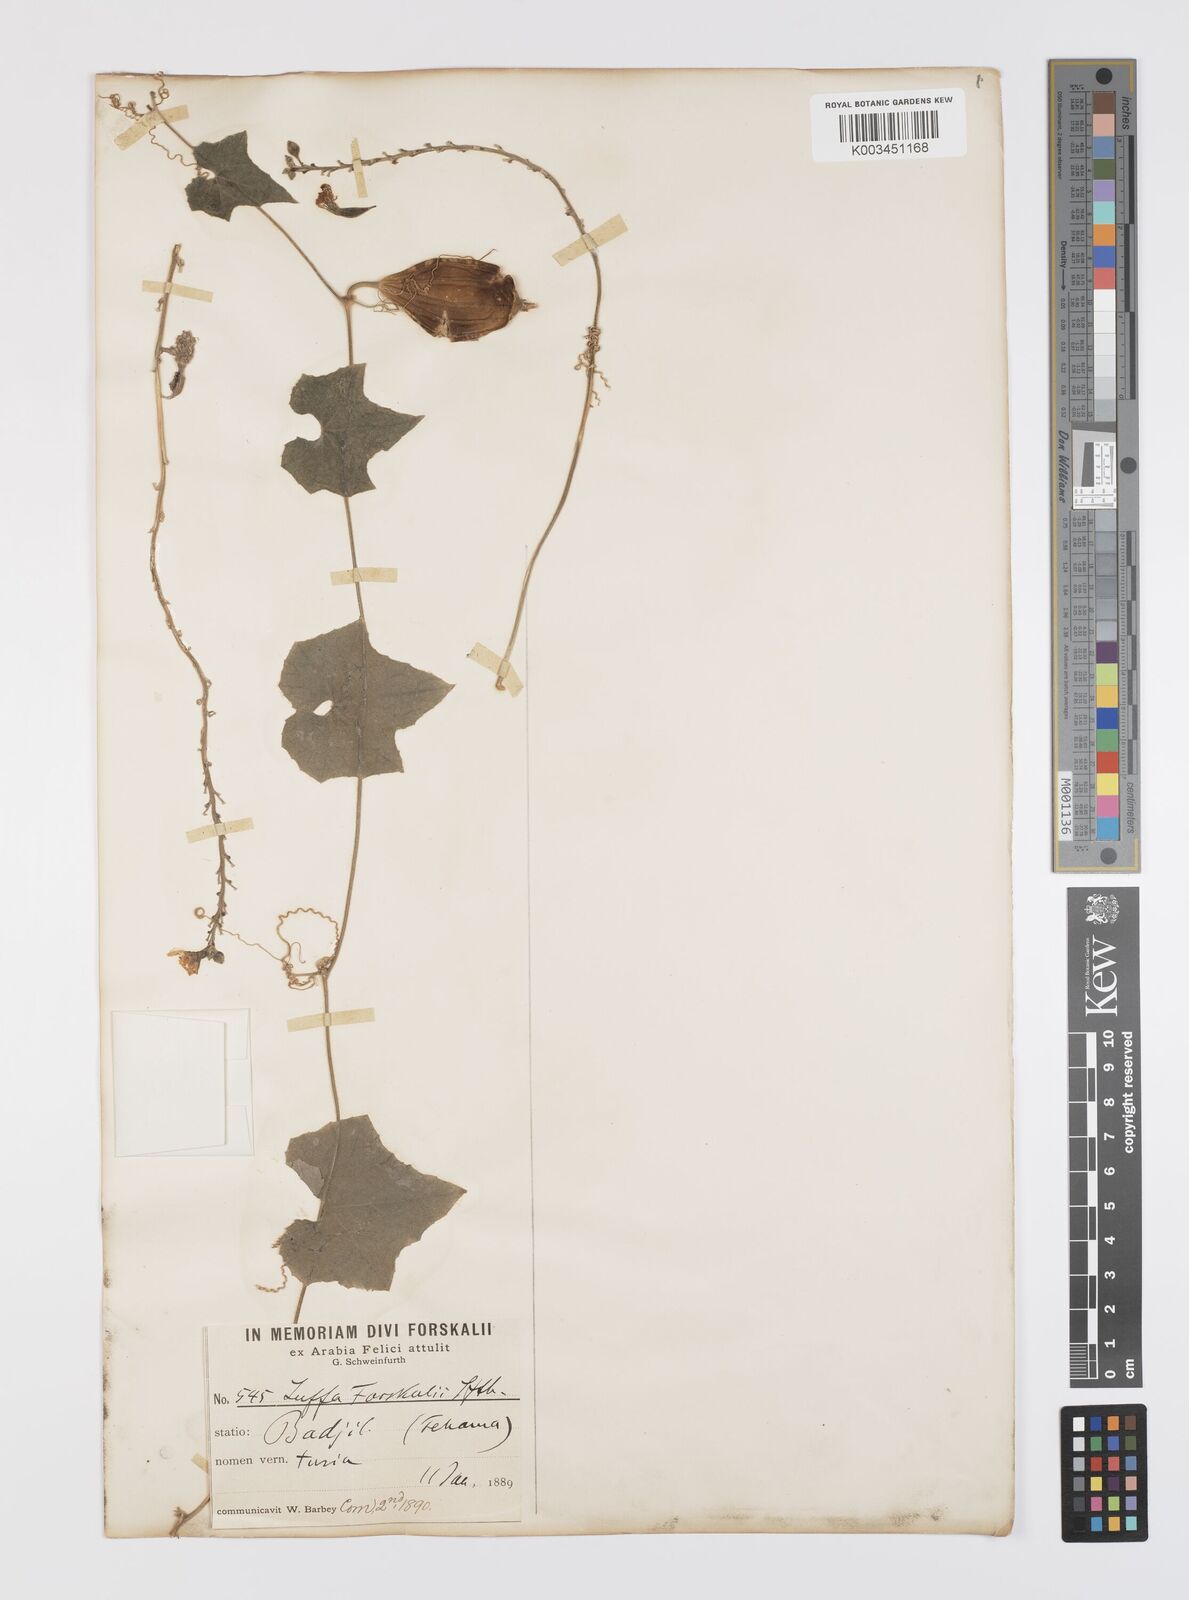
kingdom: Plantae
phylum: Tracheophyta
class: Magnoliopsida
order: Cucurbitales
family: Cucurbitaceae
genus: Luffa
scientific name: Luffa acutangula
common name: Sinkwa towelsponge
